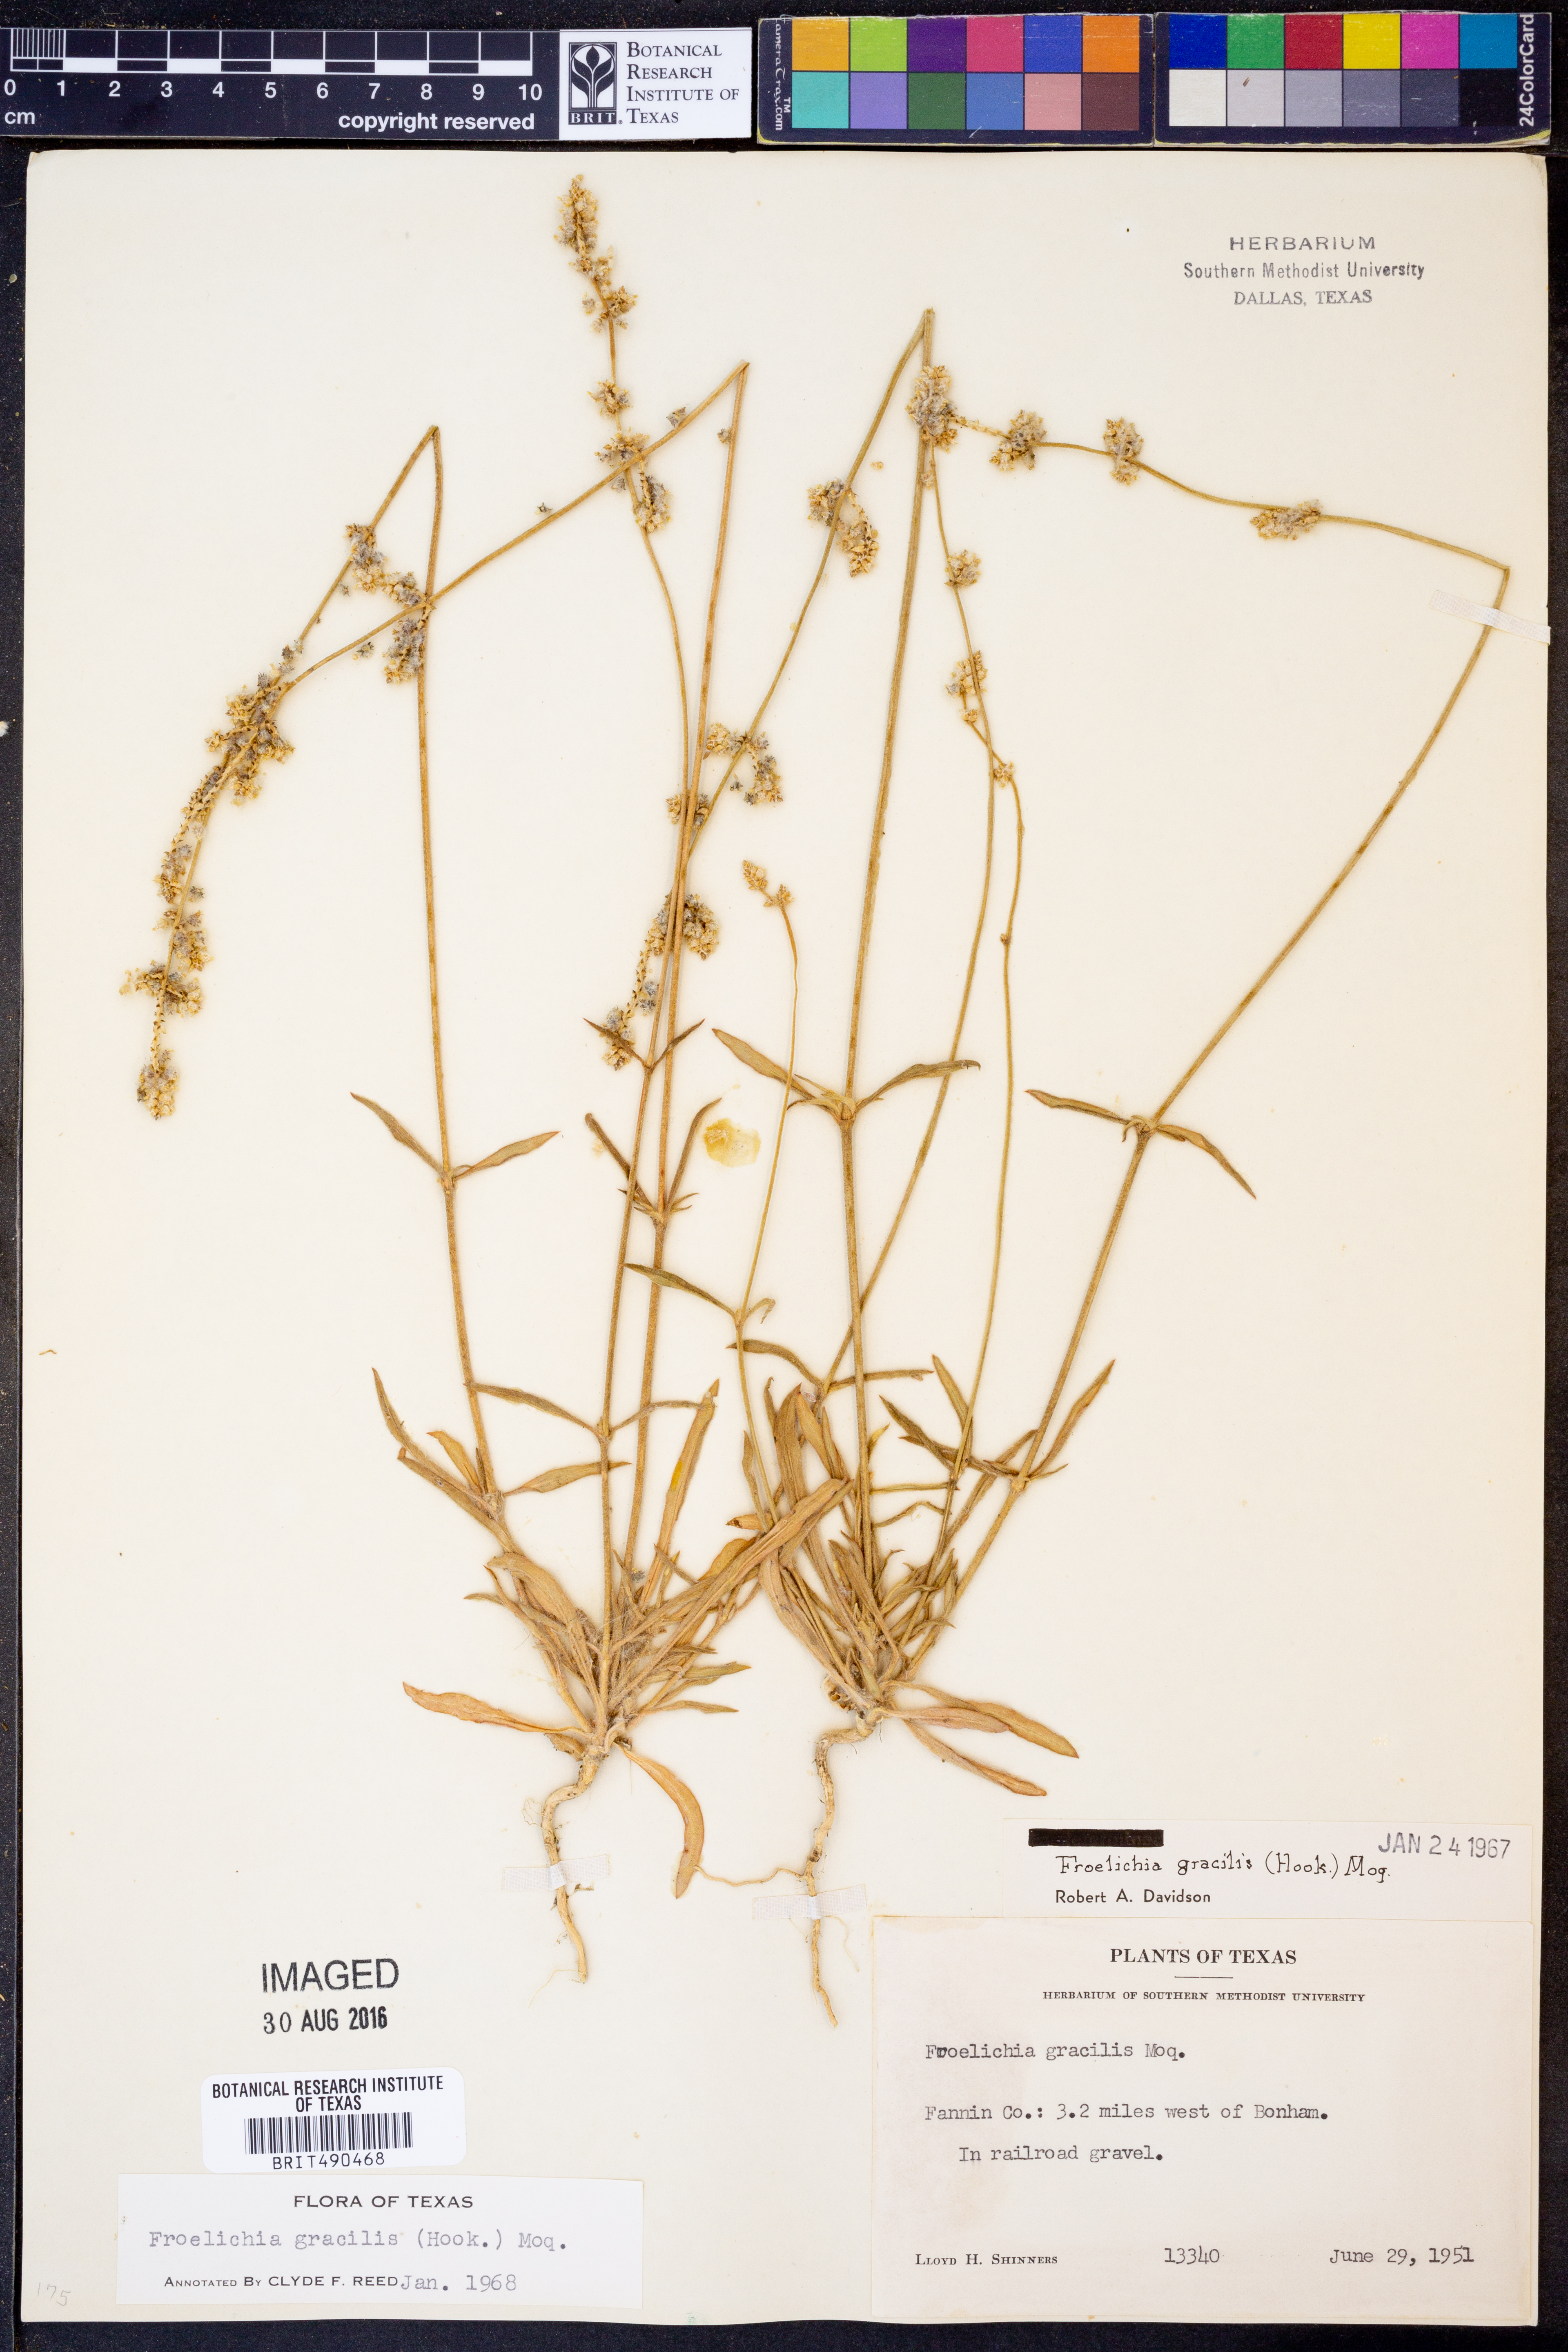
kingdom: Plantae
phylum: Tracheophyta
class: Magnoliopsida
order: Caryophyllales
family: Amaranthaceae
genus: Froelichia
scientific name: Froelichia gracilis
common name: Slender cottonweed
